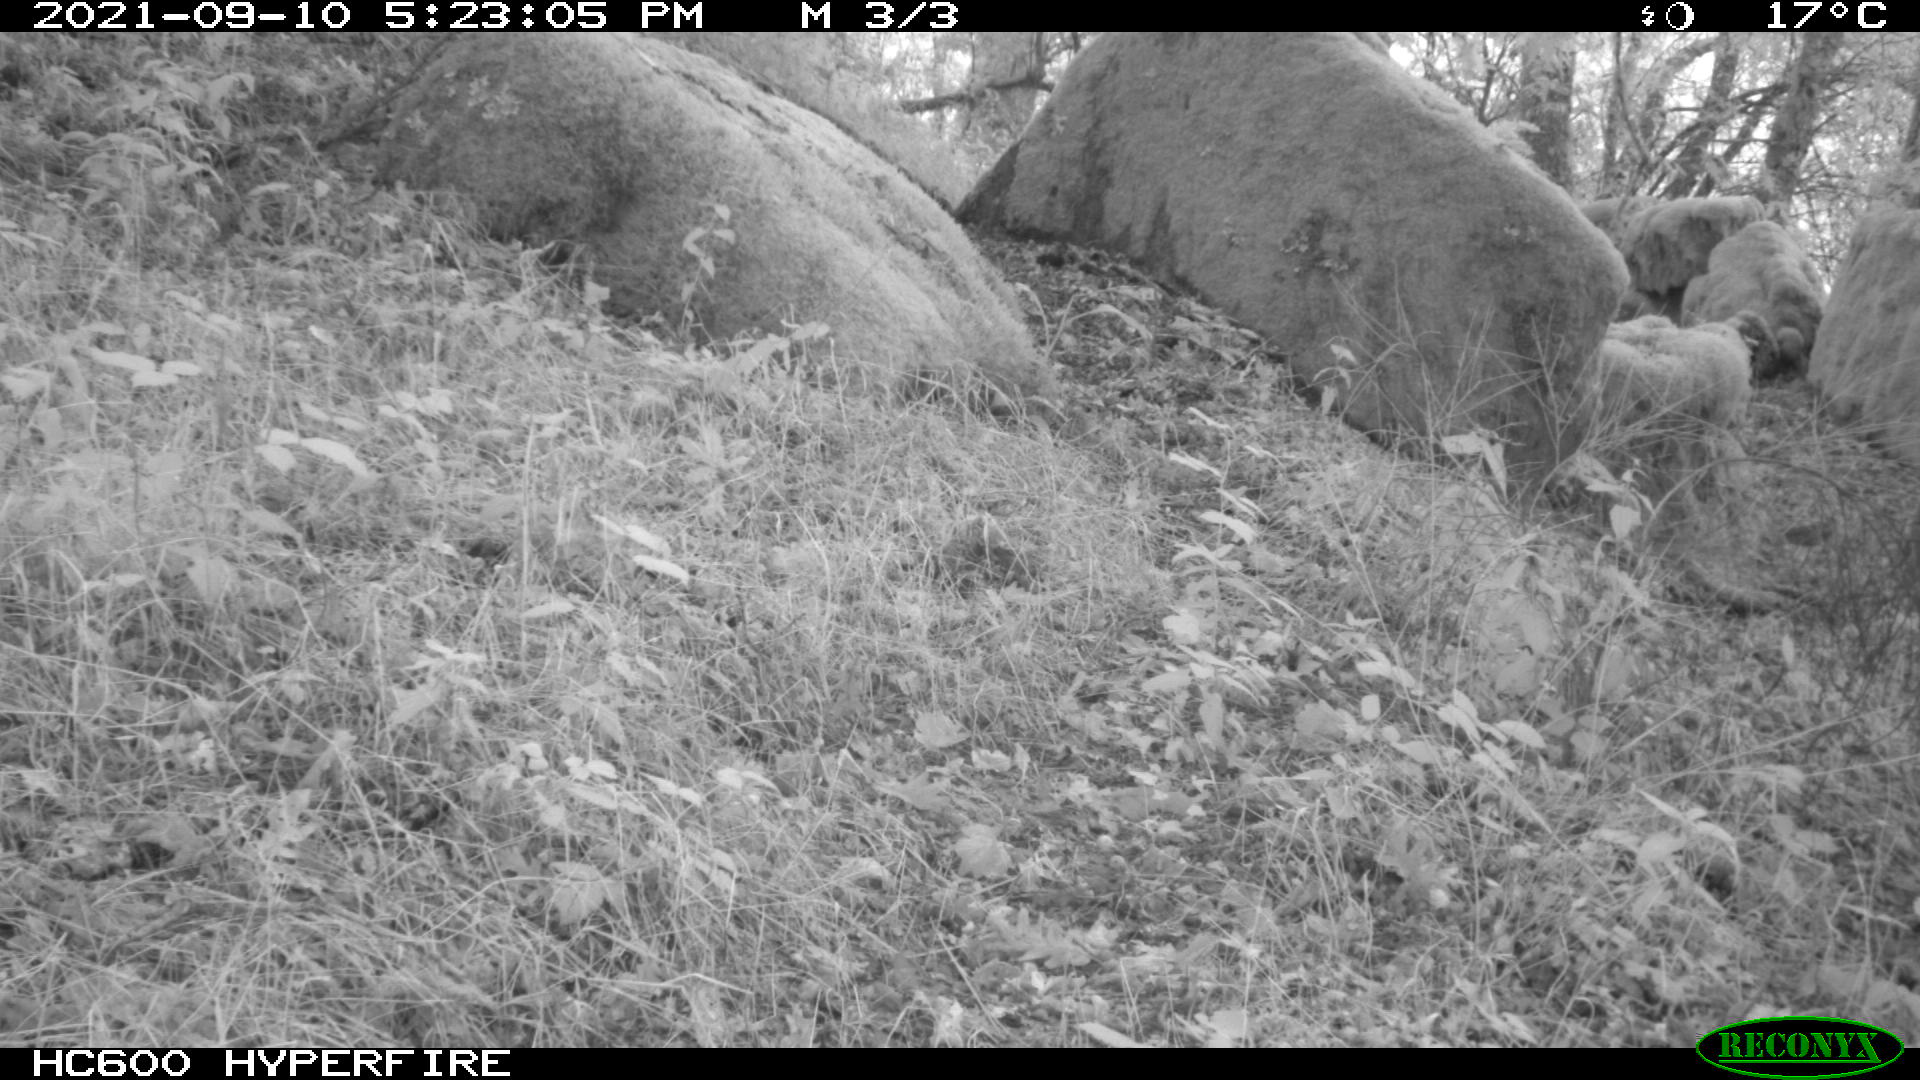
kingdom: Animalia
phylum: Chordata
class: Mammalia
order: Artiodactyla
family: Suidae
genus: Sus
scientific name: Sus scrofa
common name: Wild boar
